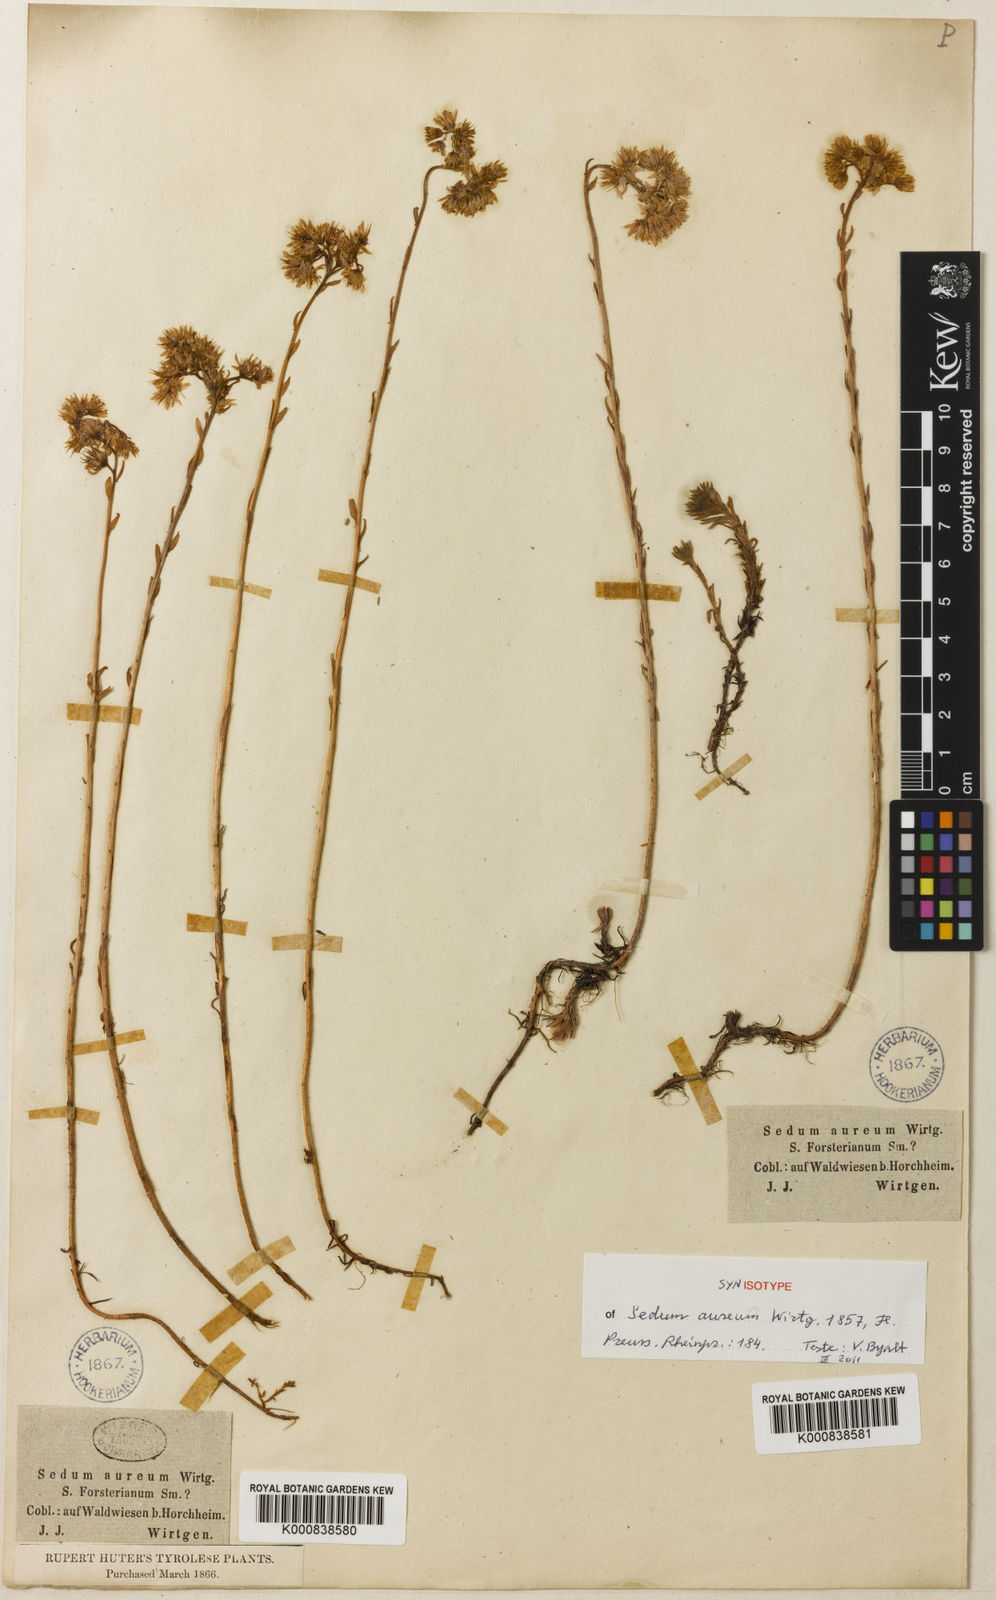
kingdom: Plantae
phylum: Tracheophyta
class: Magnoliopsida
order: Saxifragales
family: Crassulaceae
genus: Petrosedum
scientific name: Petrosedum forsterianum
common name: Forster's stonecrop
